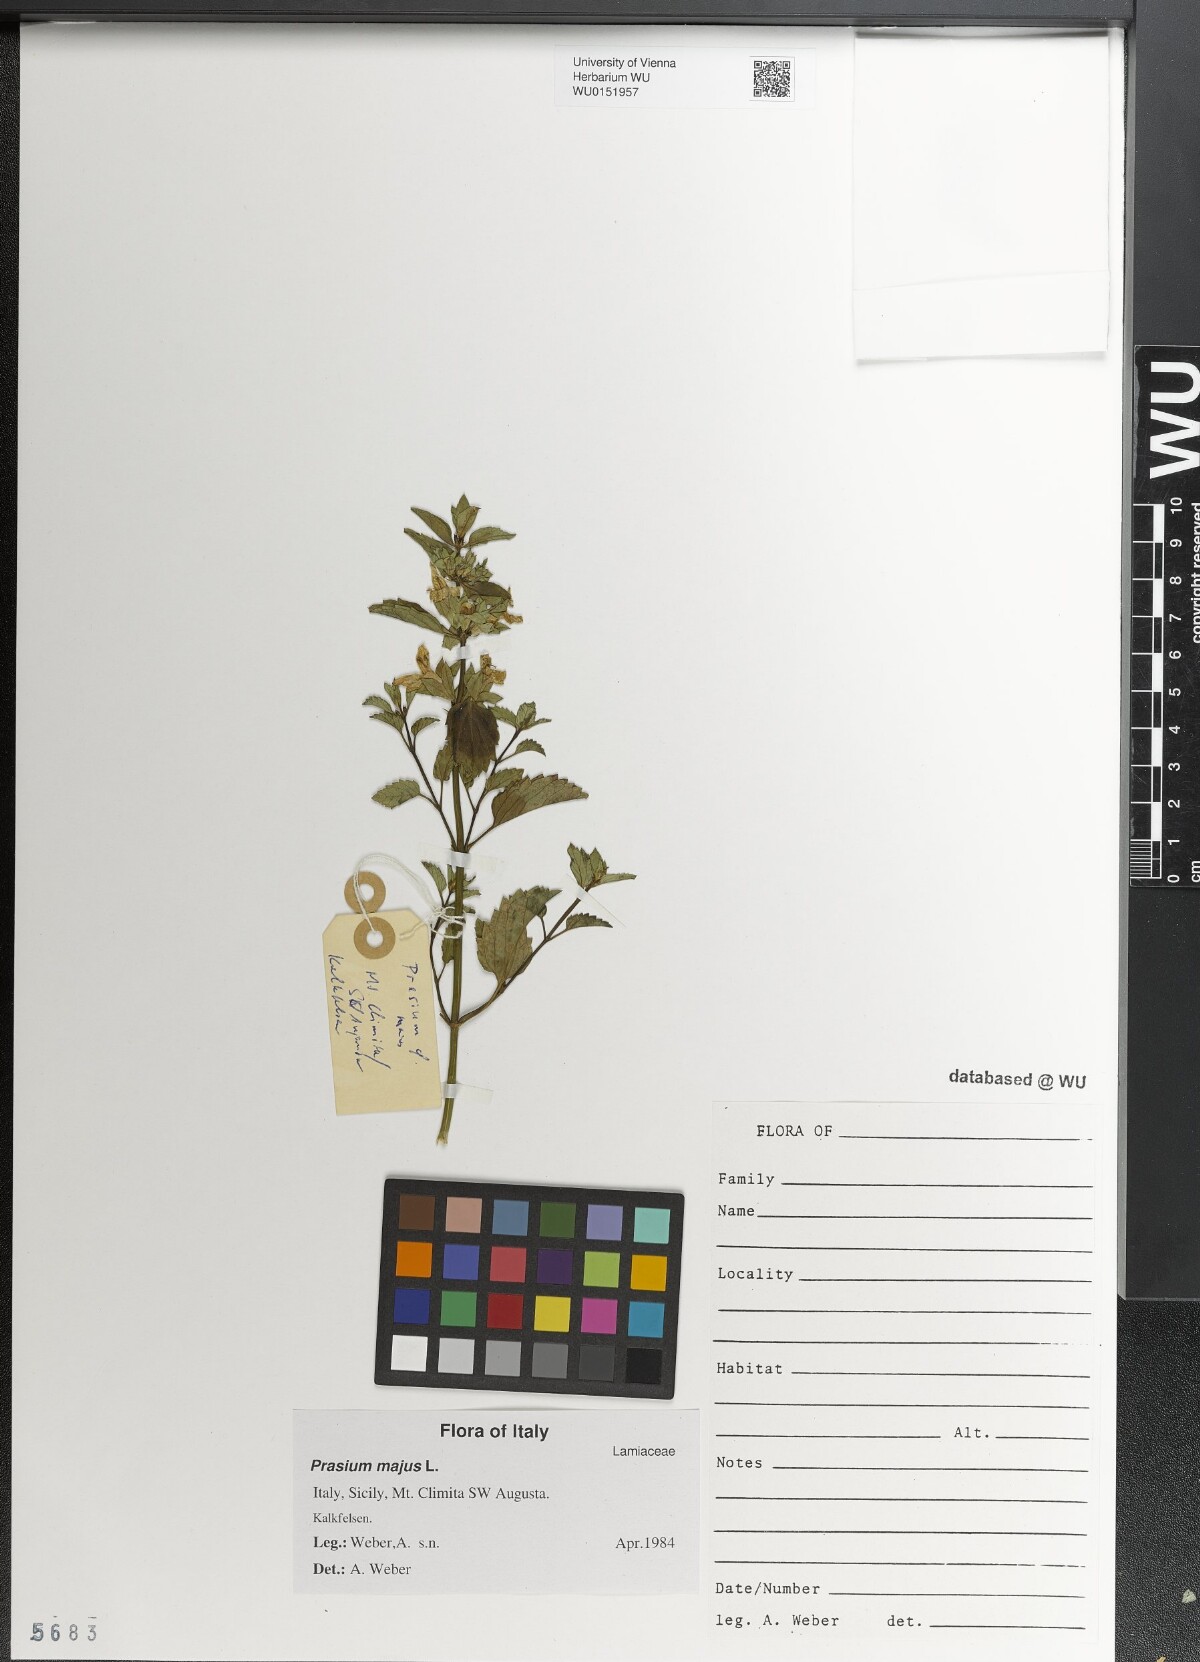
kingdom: Plantae
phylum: Tracheophyta
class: Magnoliopsida
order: Lamiales
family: Lamiaceae
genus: Prasium
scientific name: Prasium majus
